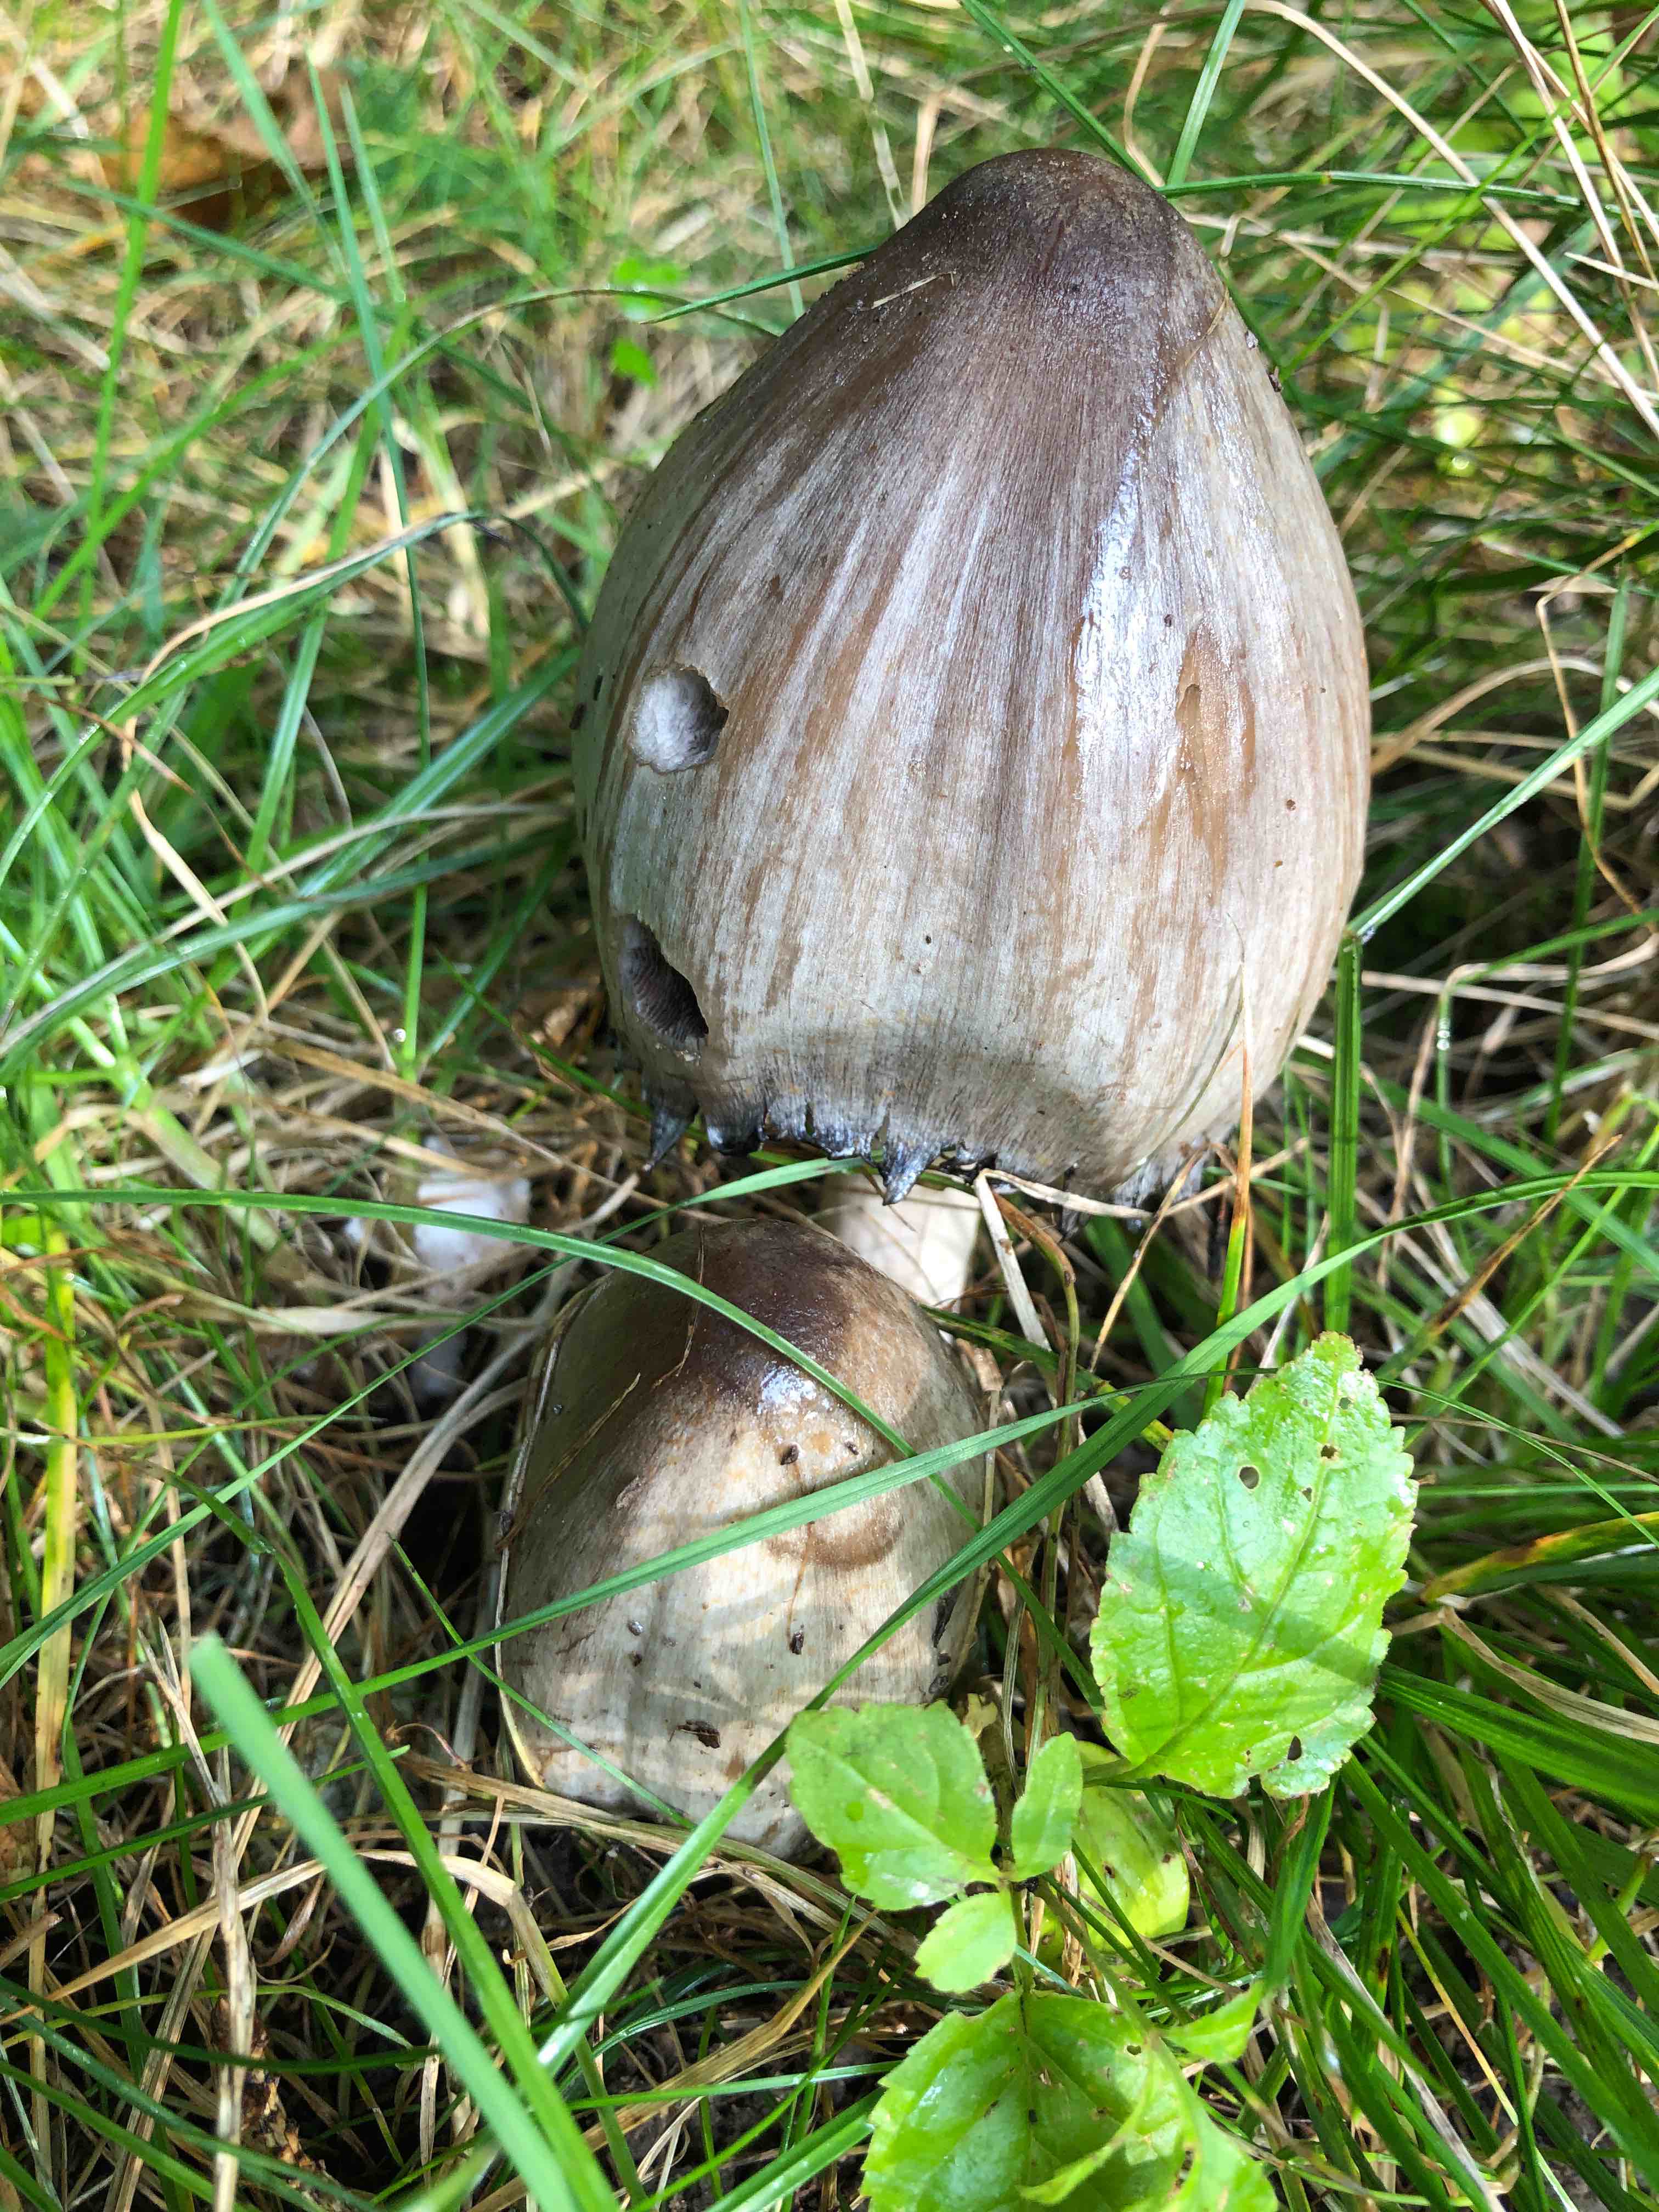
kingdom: Fungi
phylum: Basidiomycota
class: Agaricomycetes
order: Agaricales
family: Psathyrellaceae
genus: Coprinopsis
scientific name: Coprinopsis atramentaria
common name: almindelig blækhat
